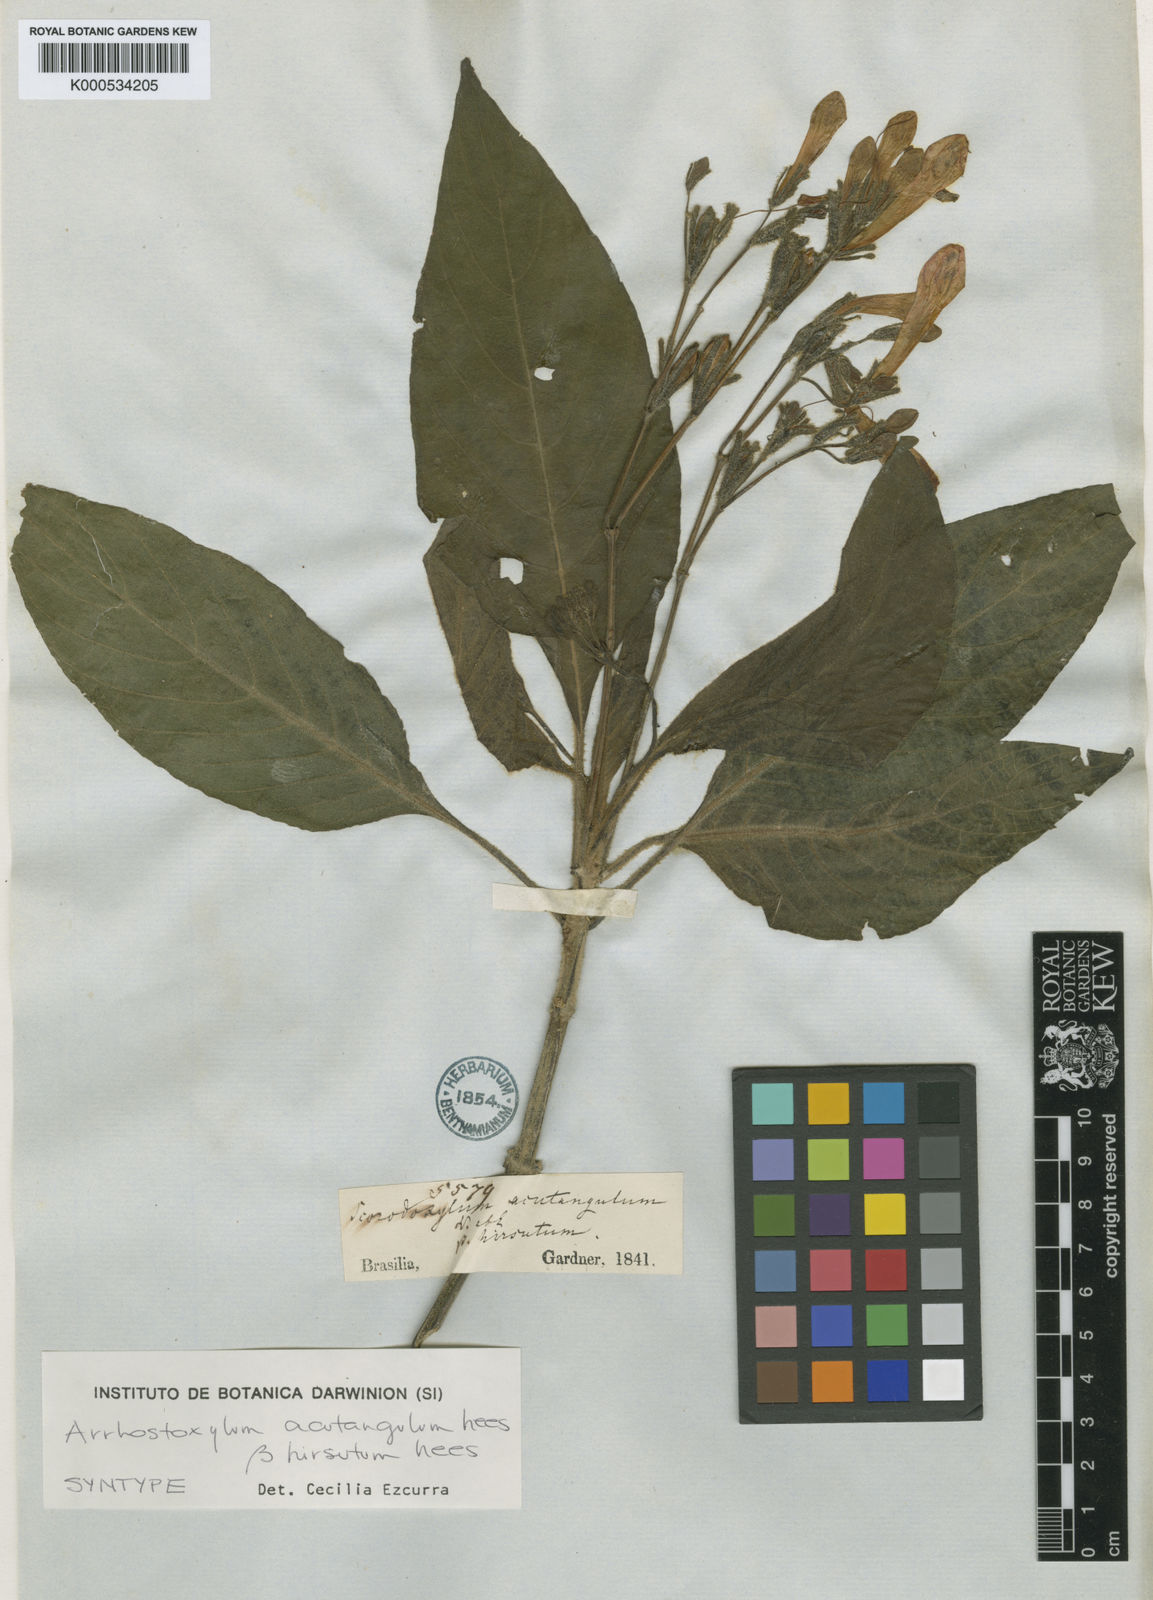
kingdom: Plantae
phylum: Tracheophyta
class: Magnoliopsida
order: Lamiales
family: Acanthaceae
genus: Ruellia
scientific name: Ruellia acutangula
